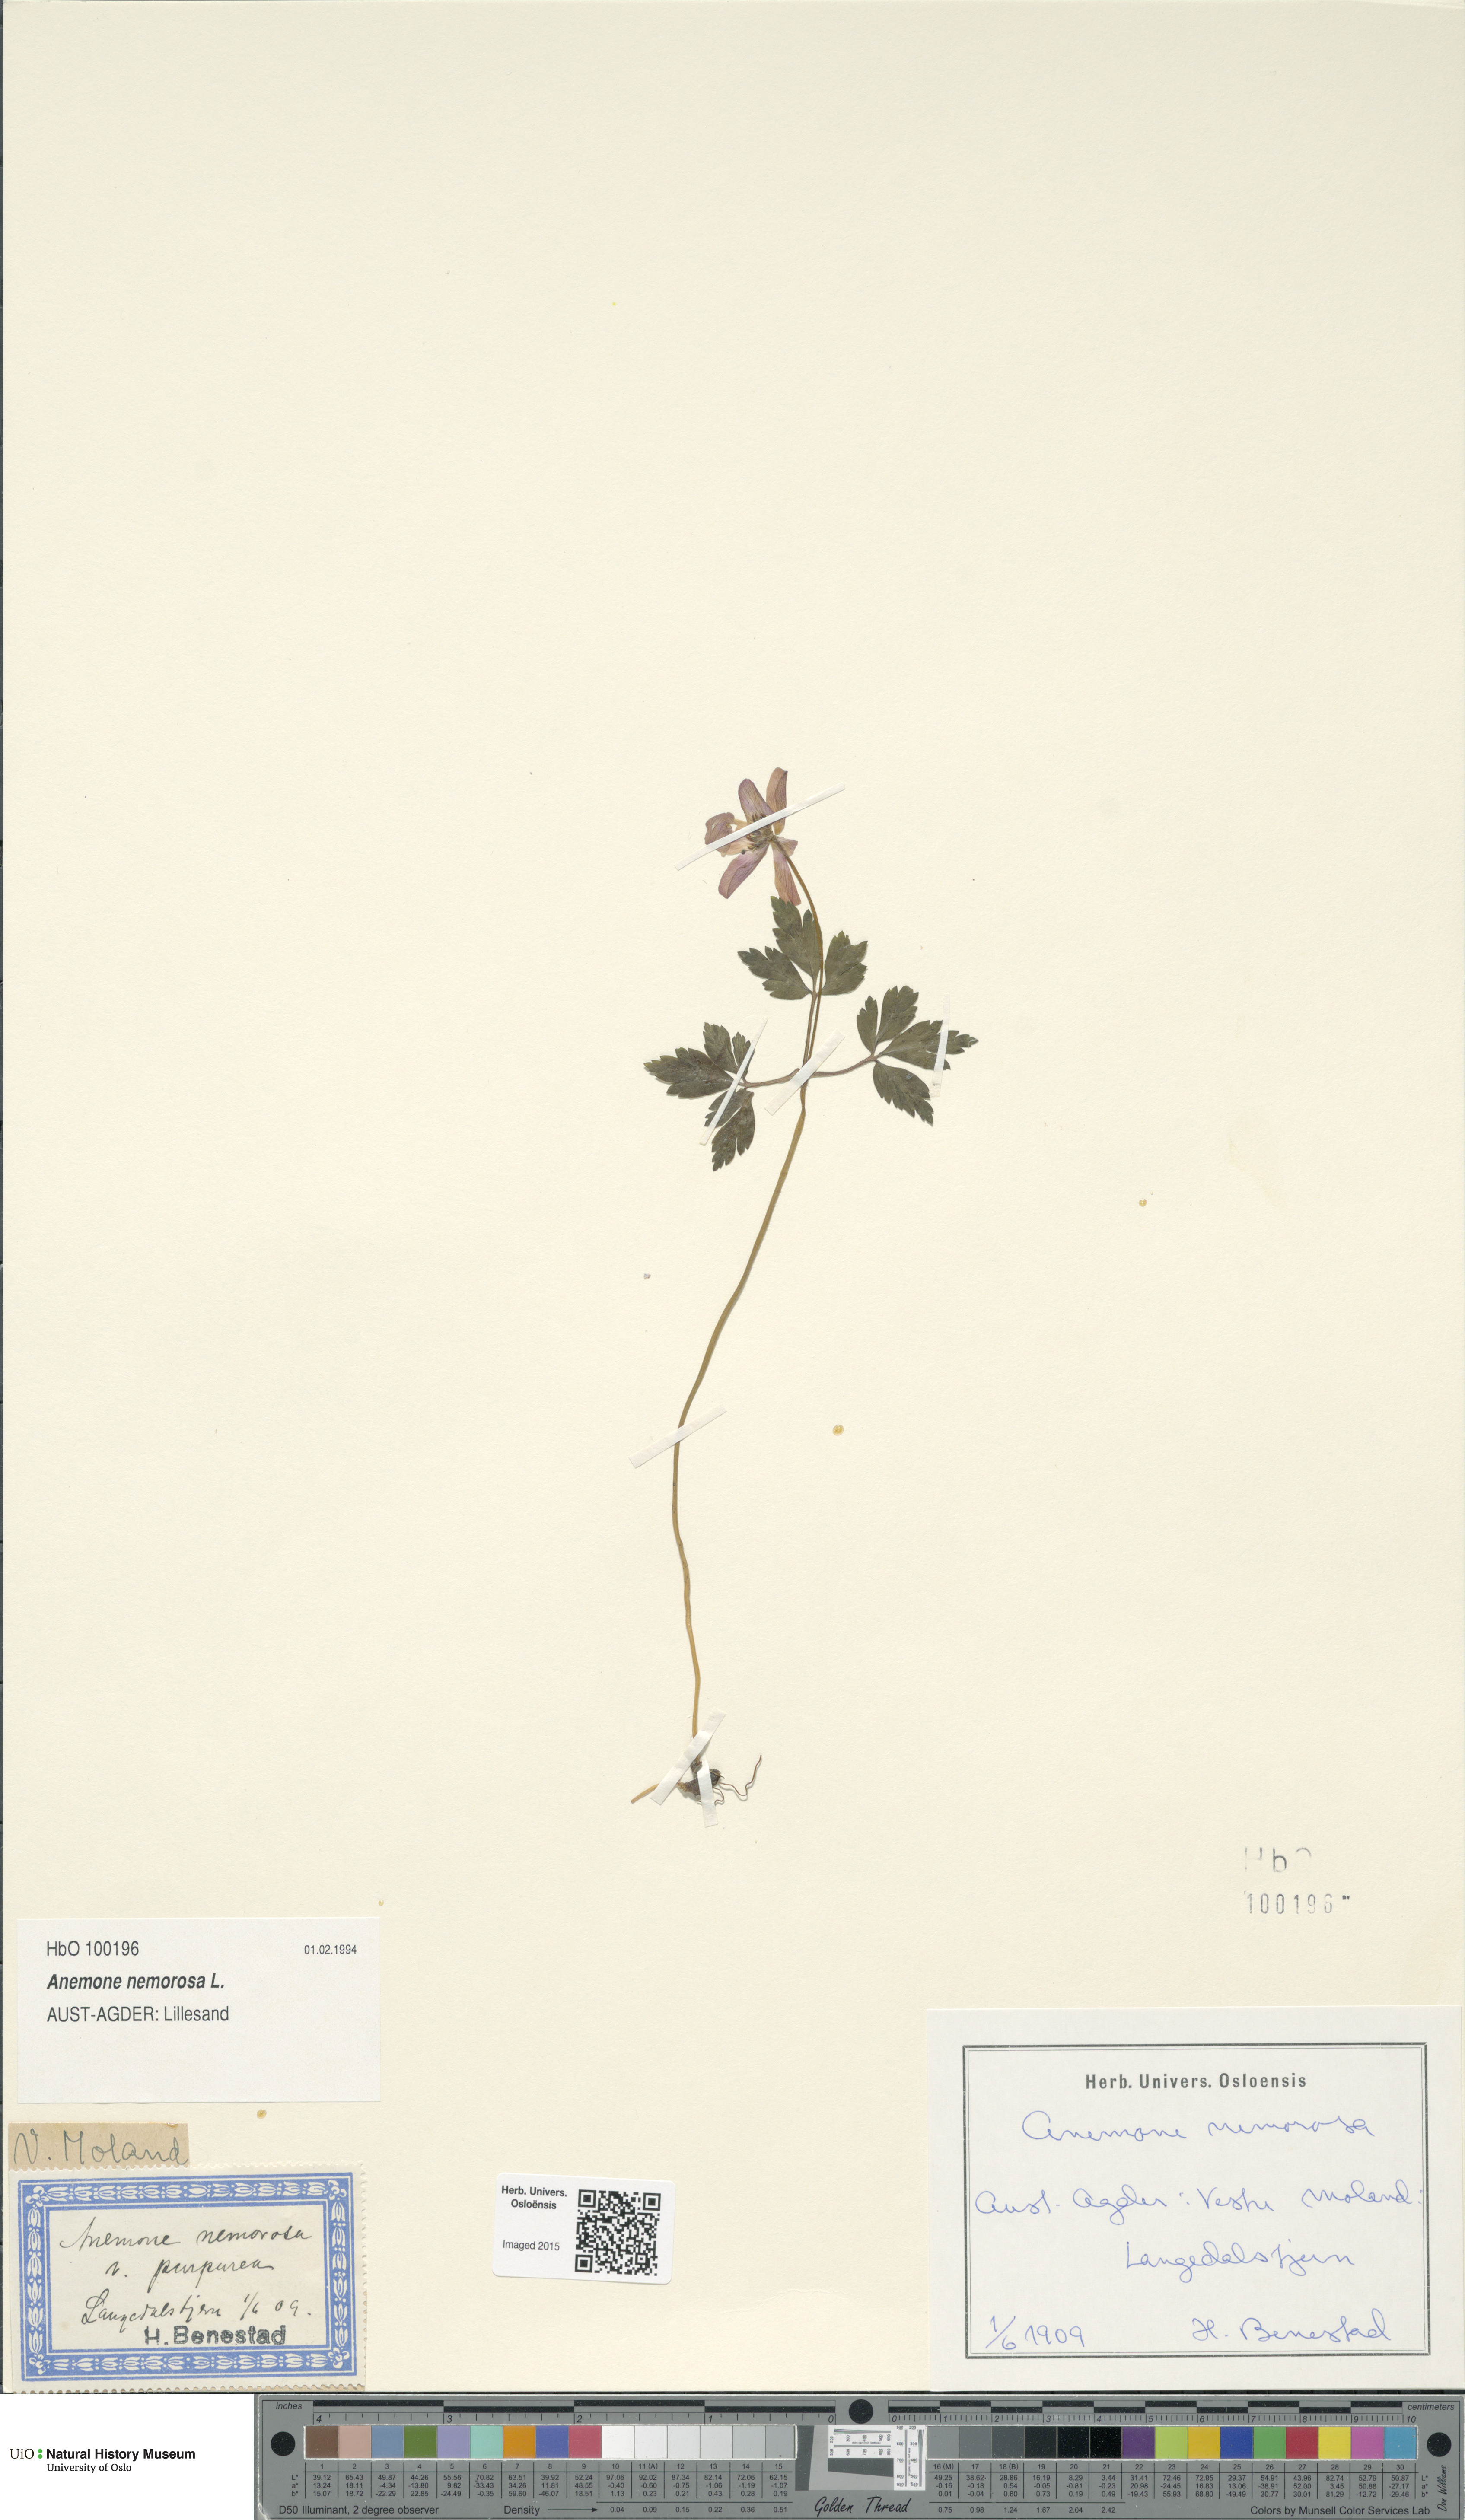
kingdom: Plantae
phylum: Tracheophyta
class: Magnoliopsida
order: Ranunculales
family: Ranunculaceae
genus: Anemone
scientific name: Anemone nemorosa
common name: Wood anemone
